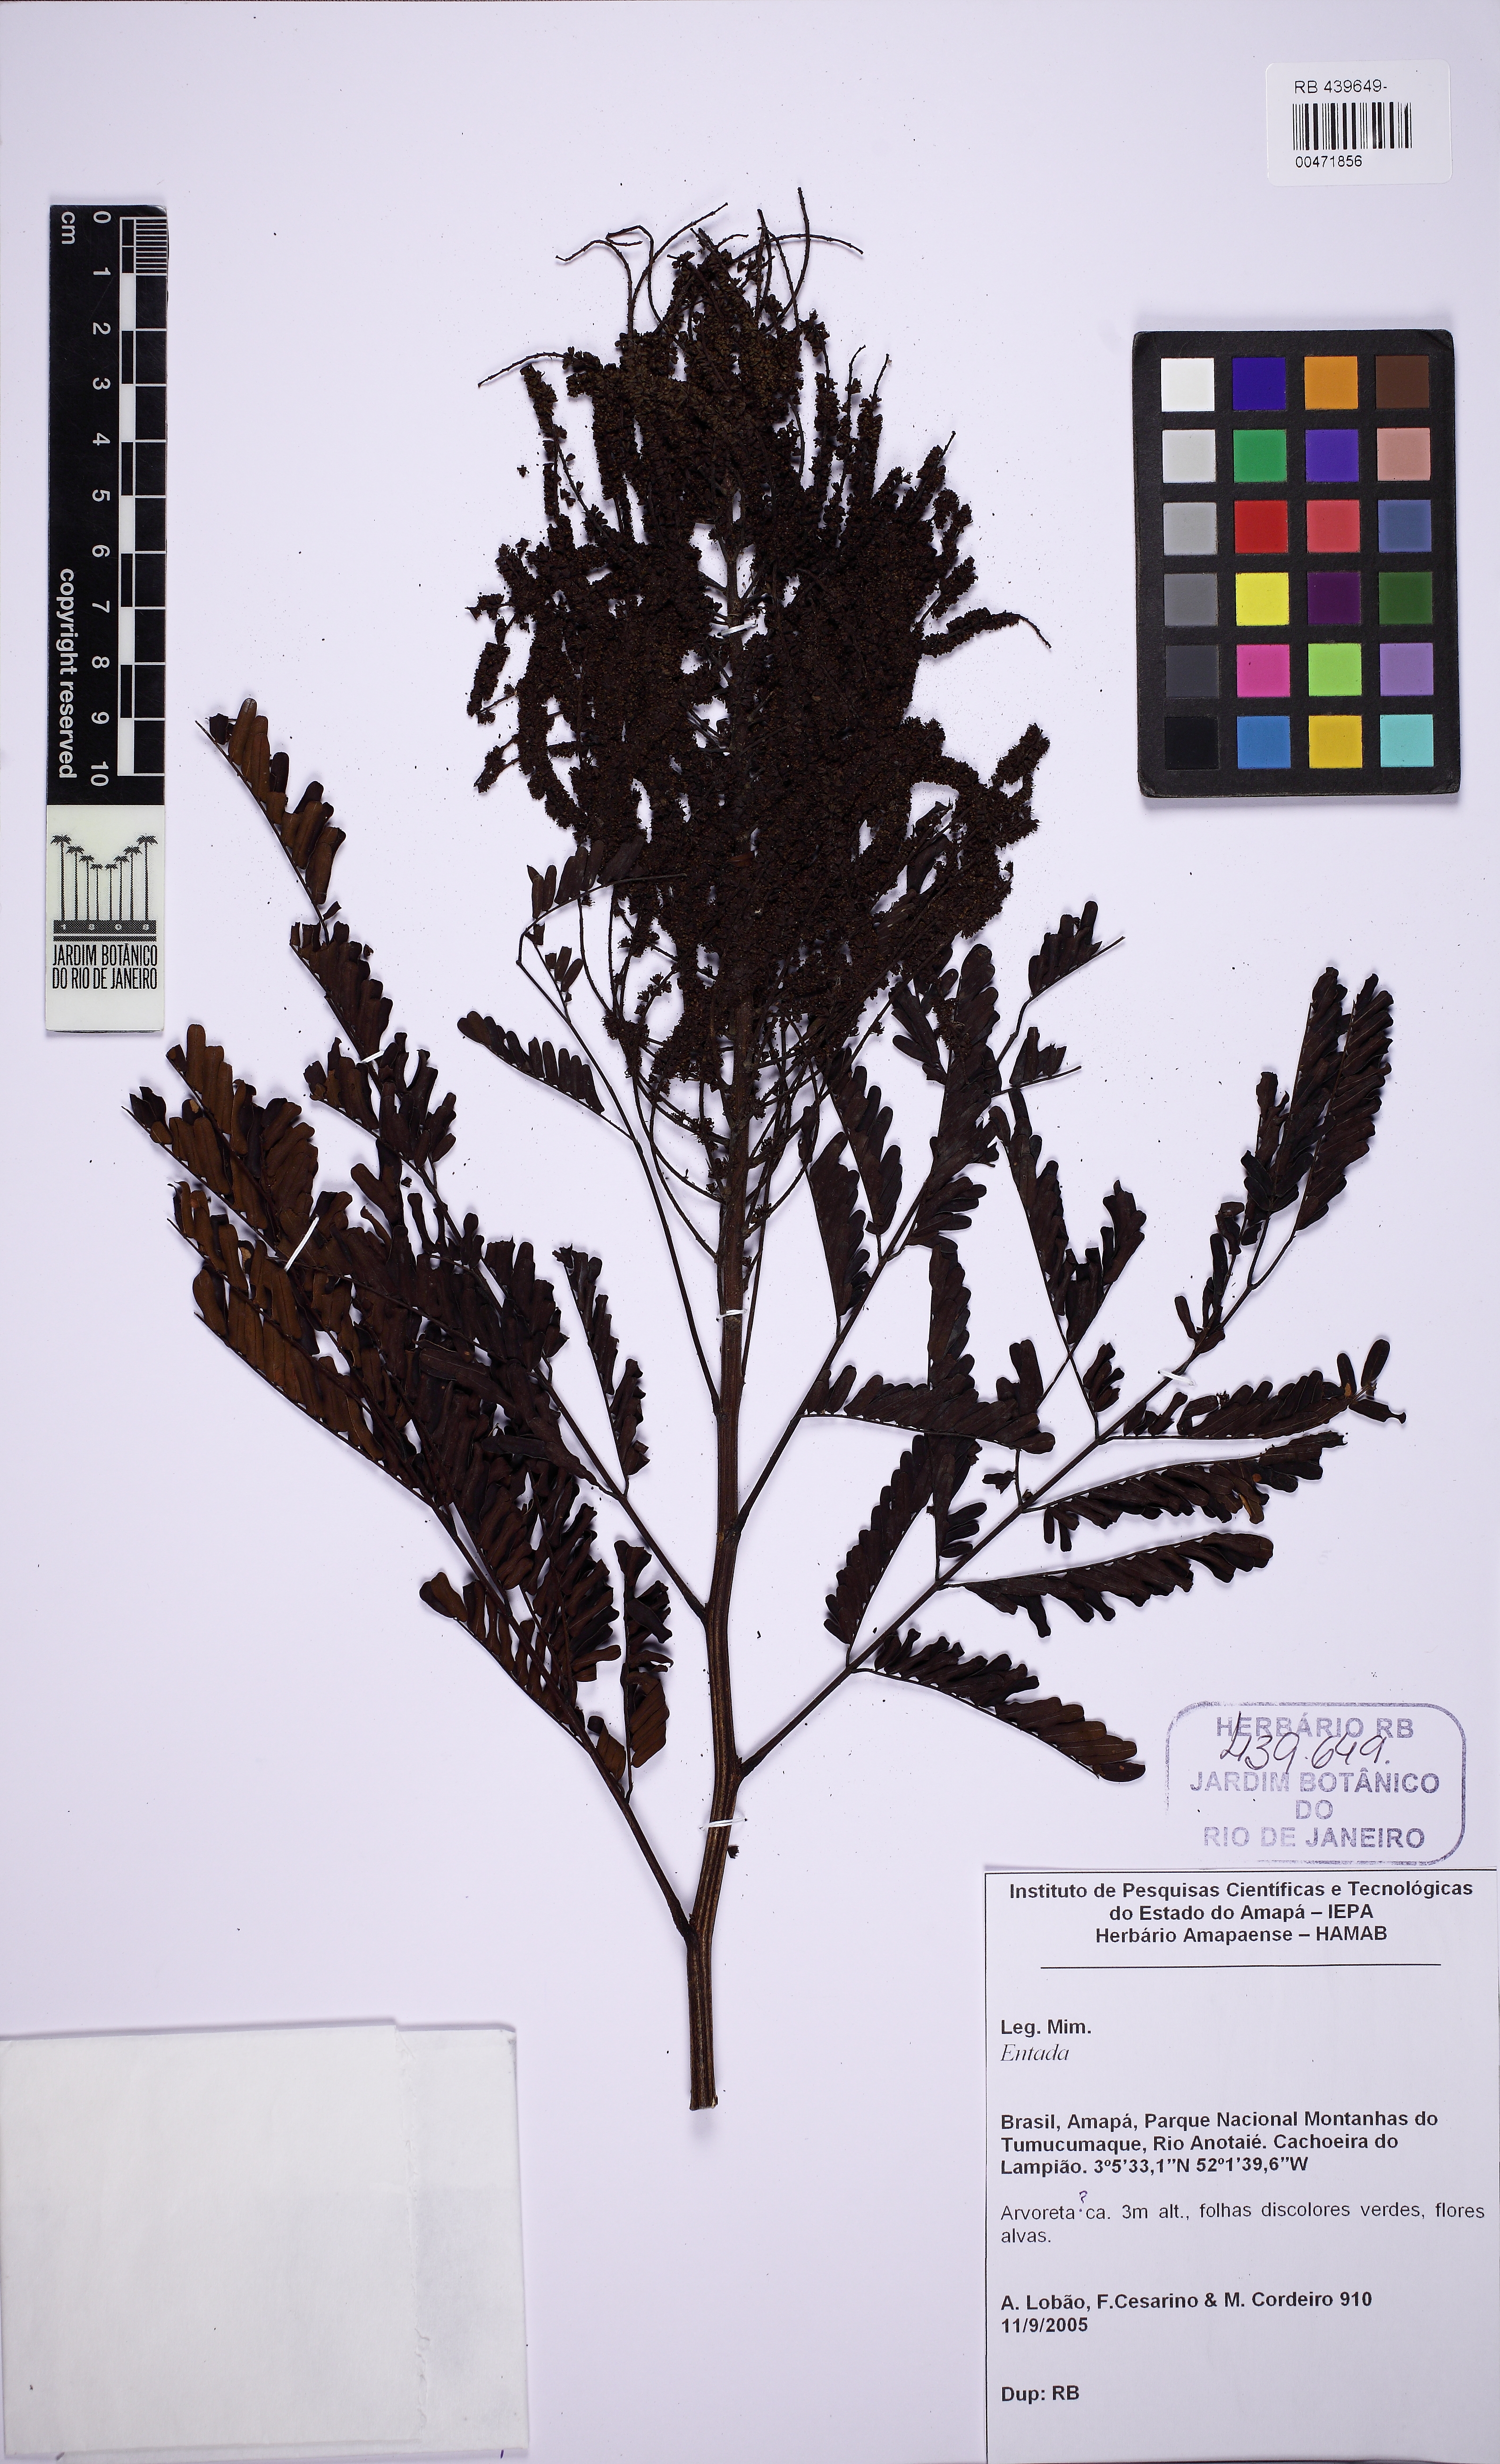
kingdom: Plantae
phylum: Tracheophyta
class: Magnoliopsida
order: Fabales
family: Fabaceae
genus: Entada
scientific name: Entada
